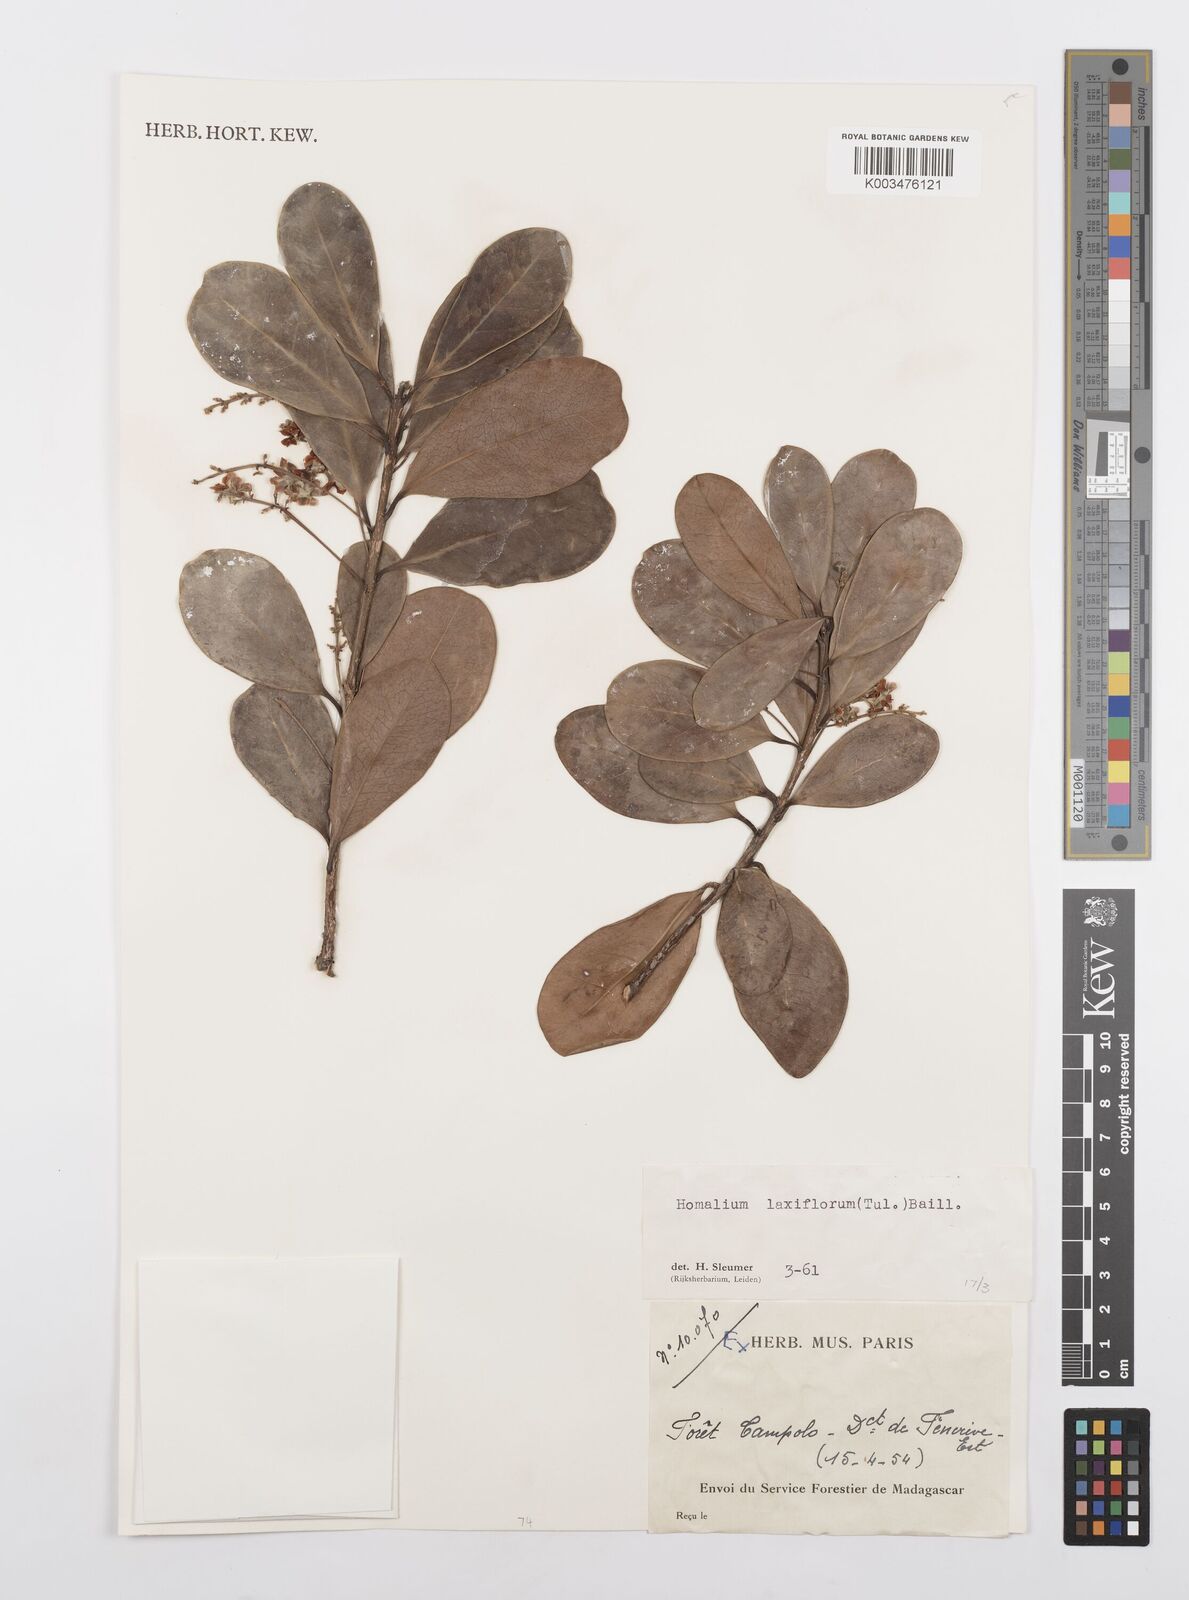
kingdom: Plantae
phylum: Tracheophyta
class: Magnoliopsida
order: Malpighiales
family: Salicaceae
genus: Homalium
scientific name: Homalium laxiflorum
